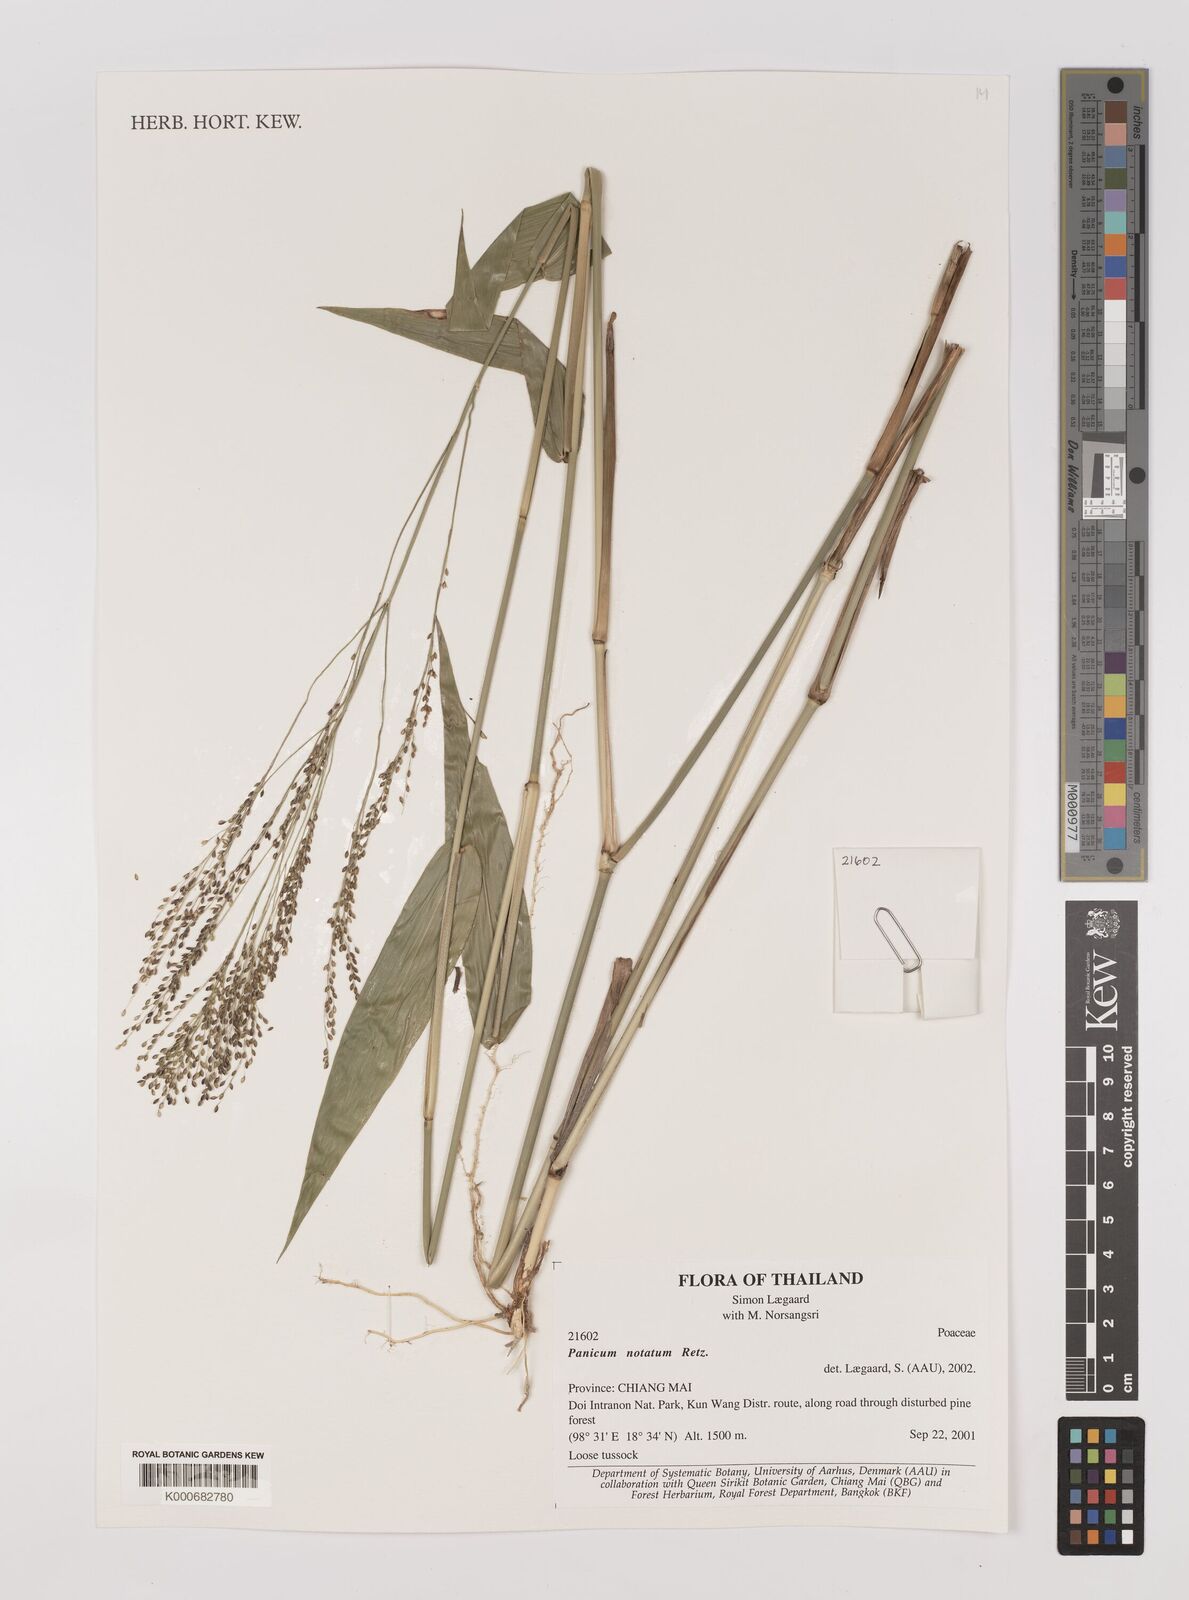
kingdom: Plantae
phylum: Tracheophyta
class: Liliopsida
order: Poales
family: Poaceae
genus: Panicum
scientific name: Panicum notatum
